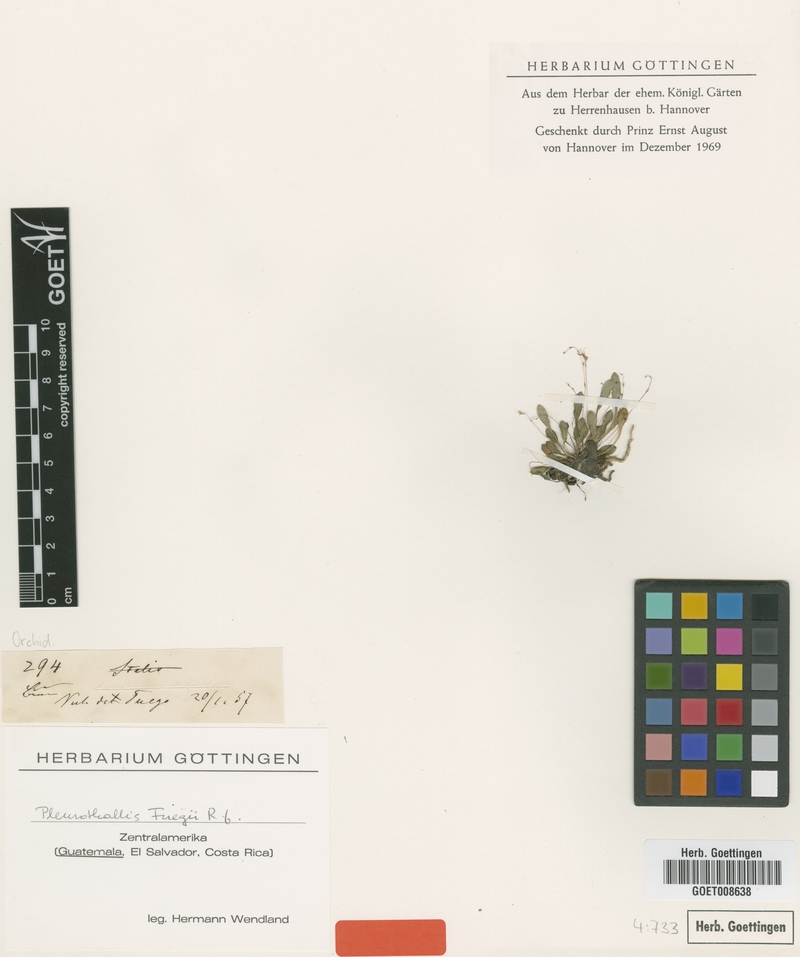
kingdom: Plantae
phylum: Tracheophyta
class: Liliopsida
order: Asparagales
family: Orchidaceae
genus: Specklinia
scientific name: Specklinia fuegi
